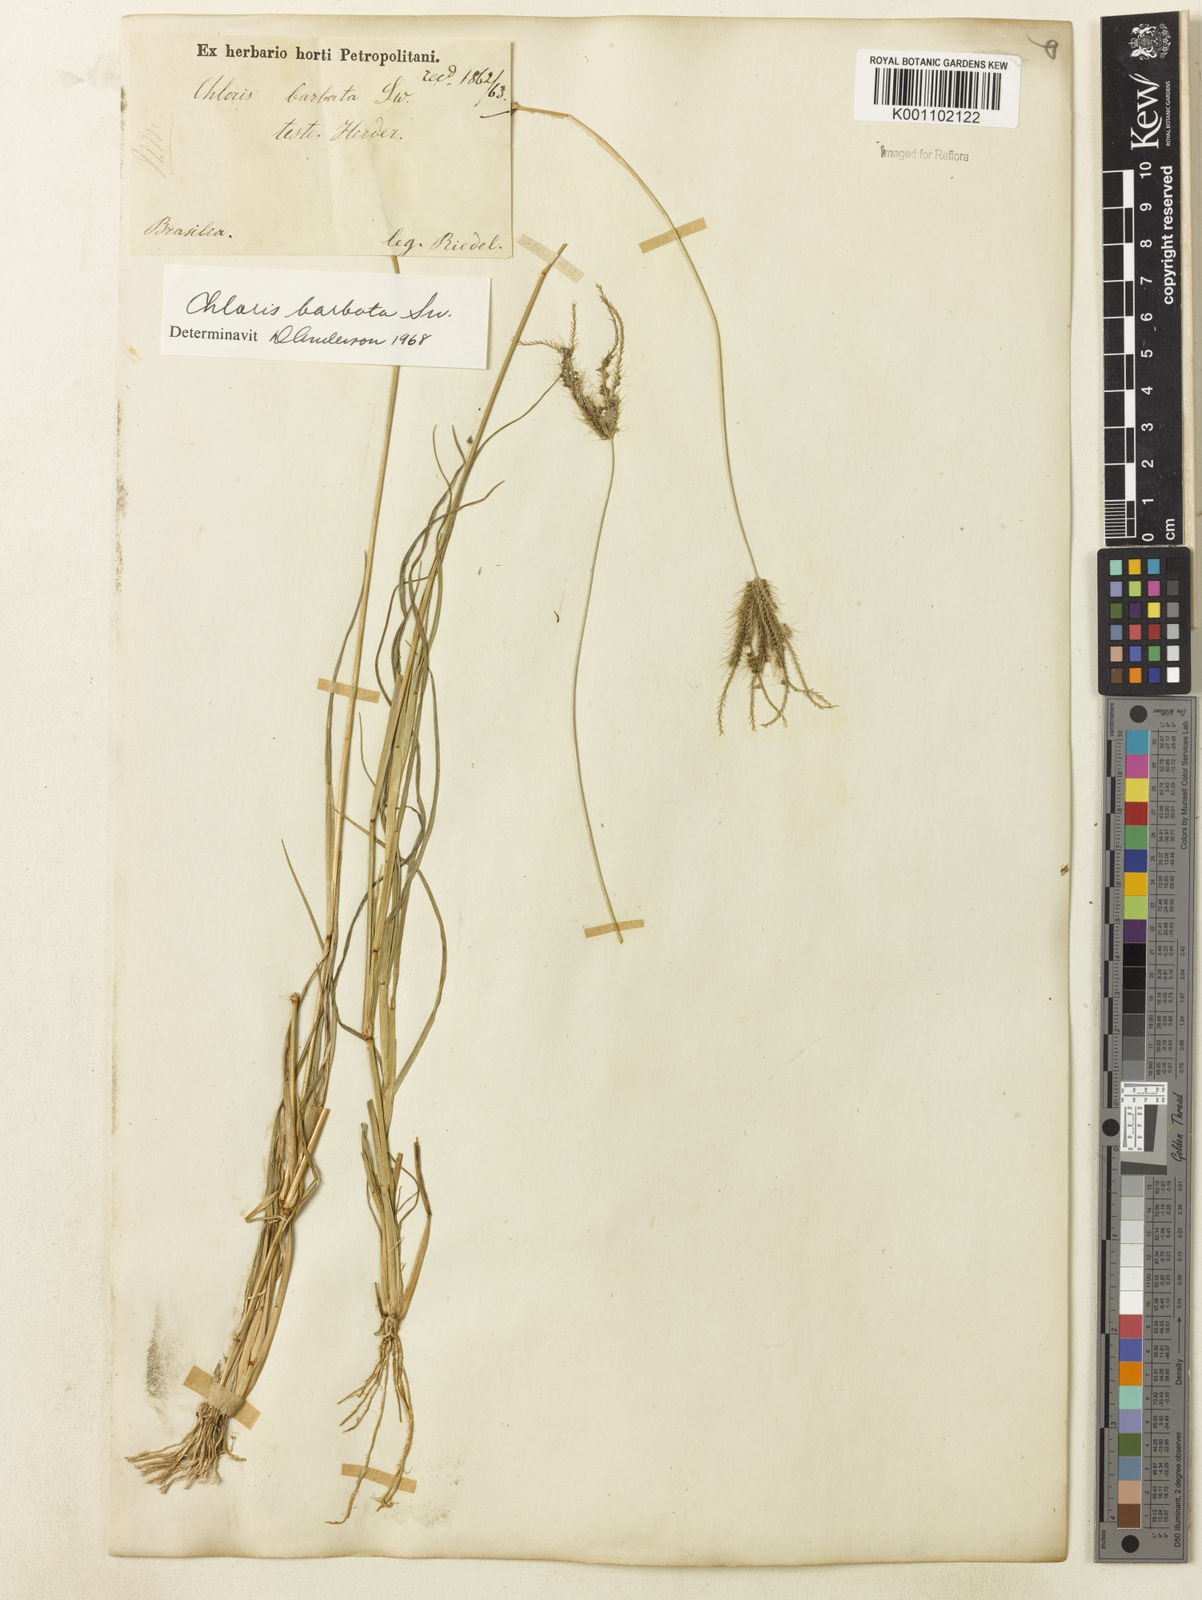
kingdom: Plantae
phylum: Tracheophyta
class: Liliopsida
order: Poales
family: Poaceae
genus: Chloris
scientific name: Chloris barbata
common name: Swollen fingergrass
